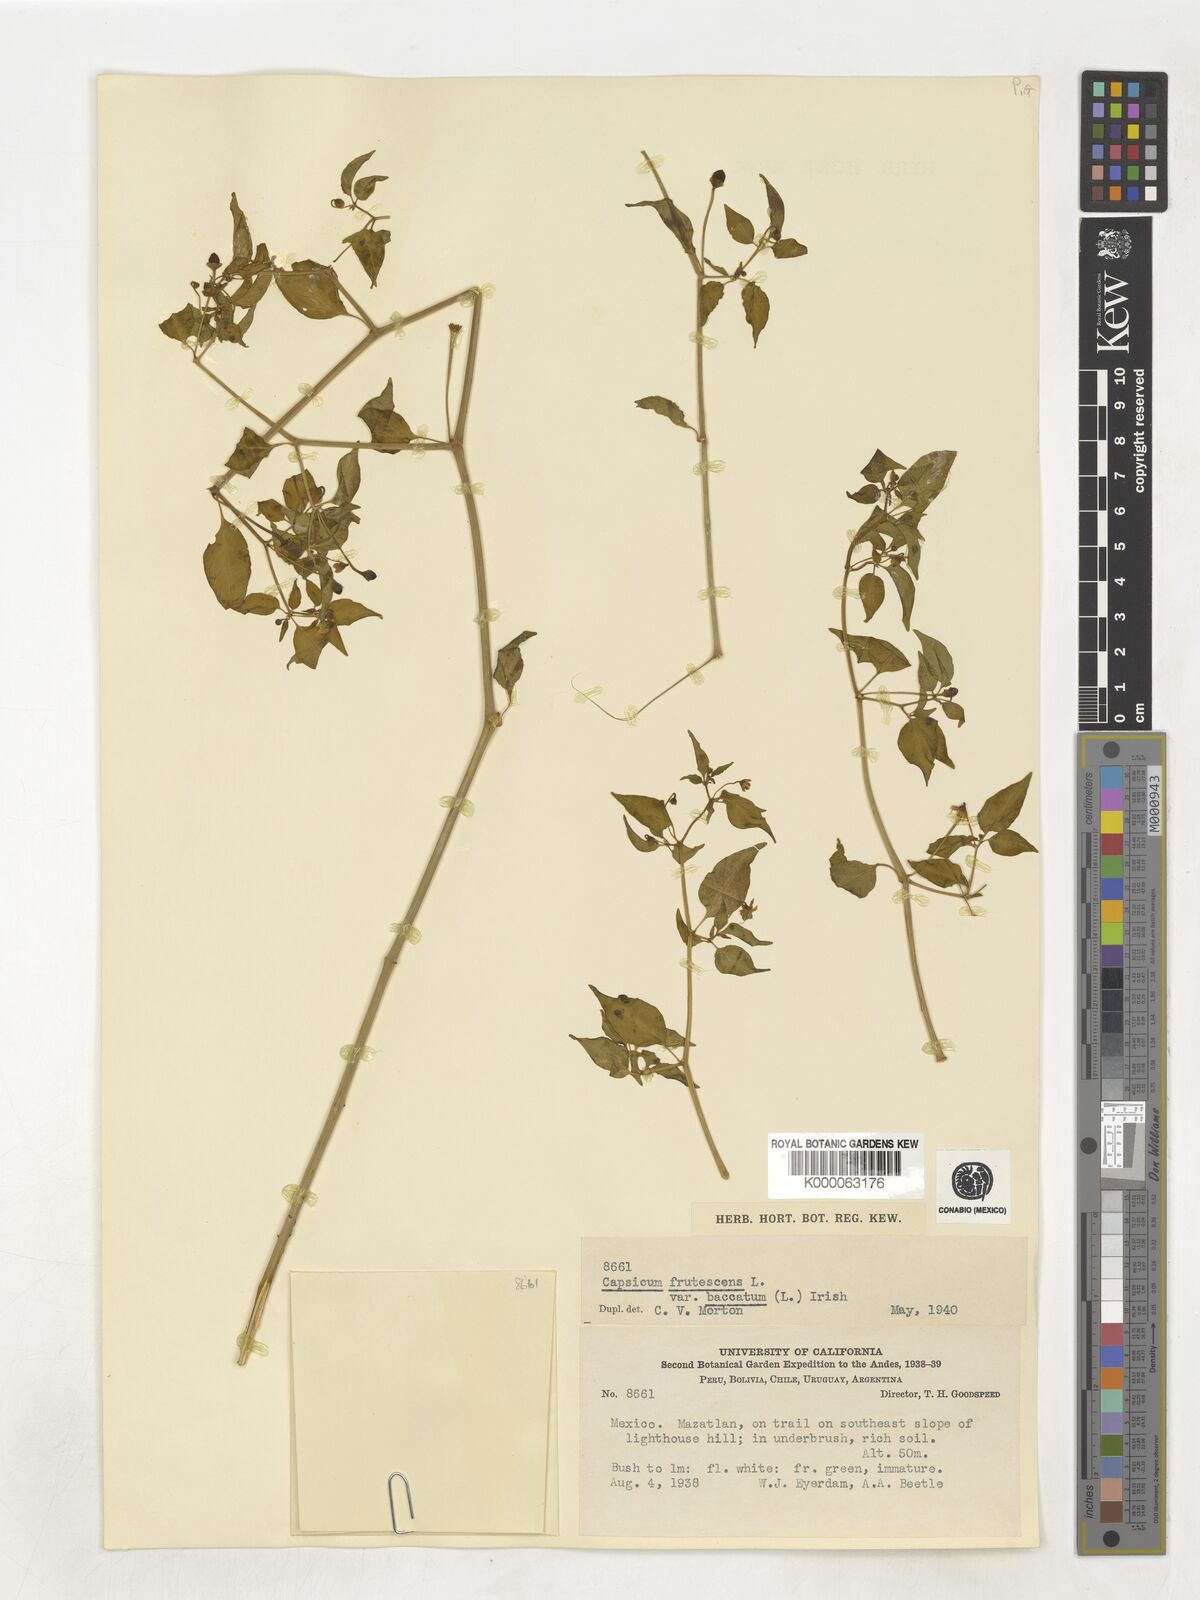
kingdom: Plantae
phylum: Tracheophyta
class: Magnoliopsida
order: Solanales
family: Solanaceae
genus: Capsicum
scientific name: Capsicum baccatum
